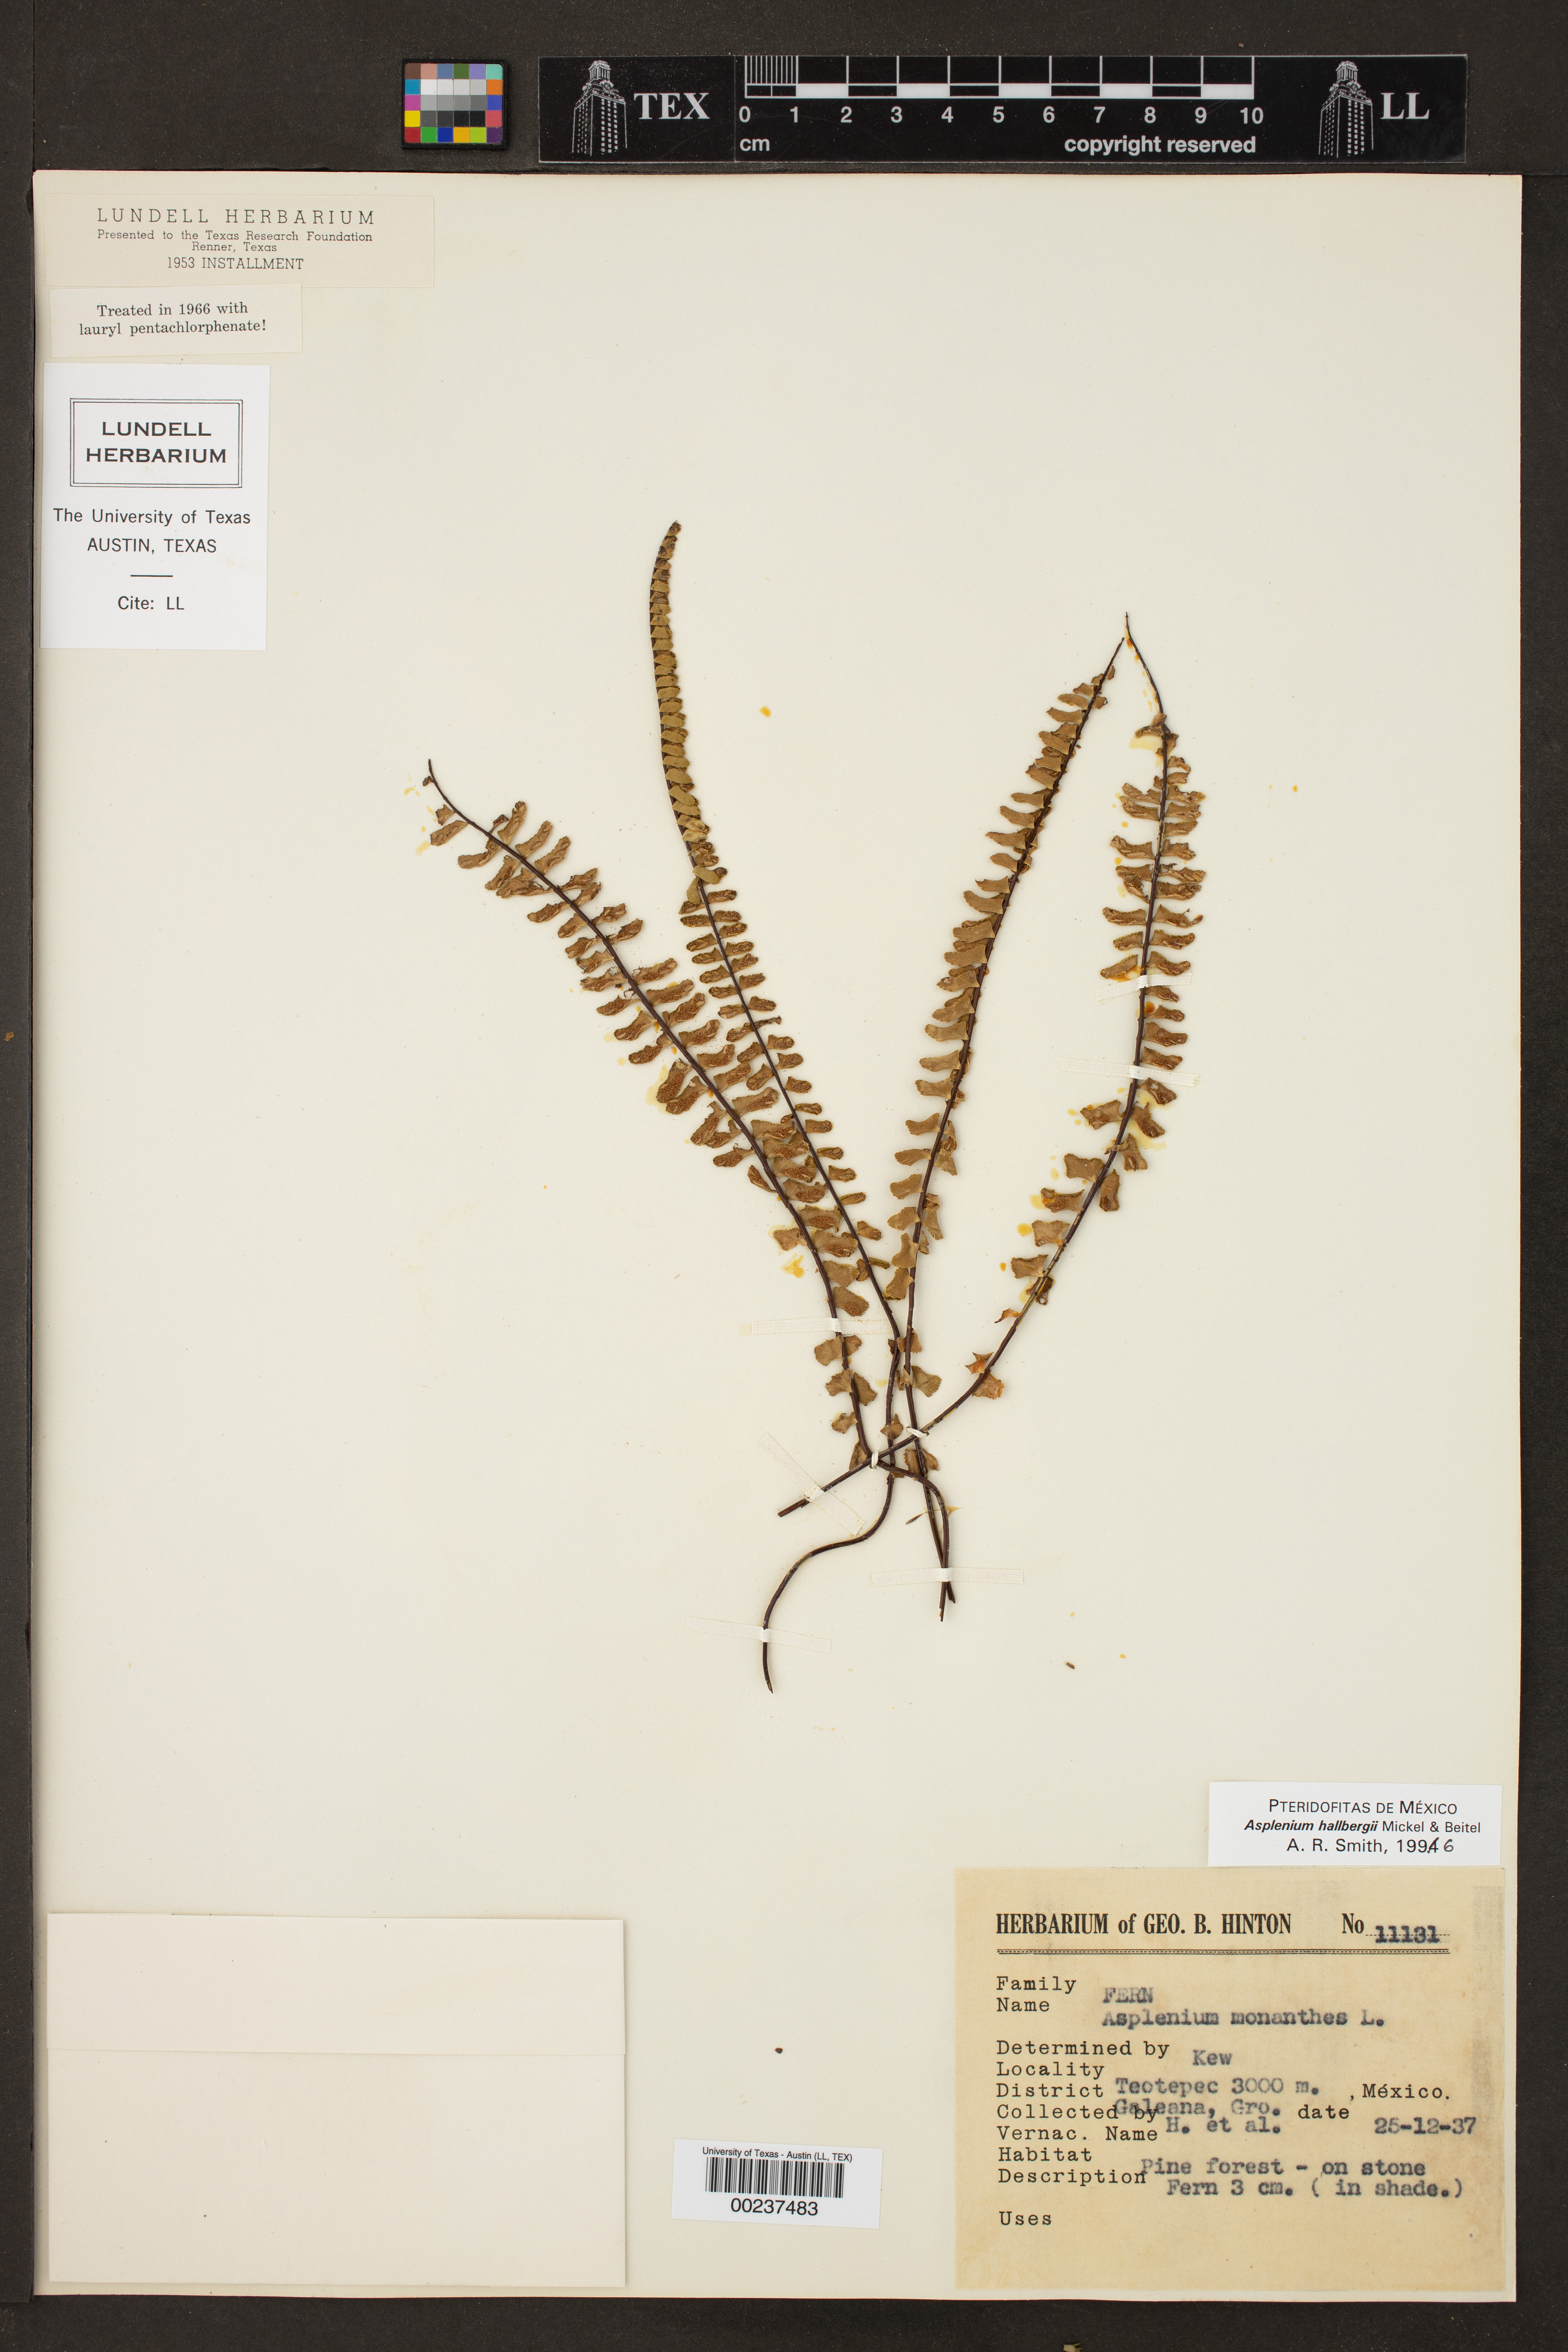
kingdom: Plantae
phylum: Tracheophyta
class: Polypodiopsida
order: Polypodiales
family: Aspleniaceae
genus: Asplenium
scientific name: Asplenium hallbergii
